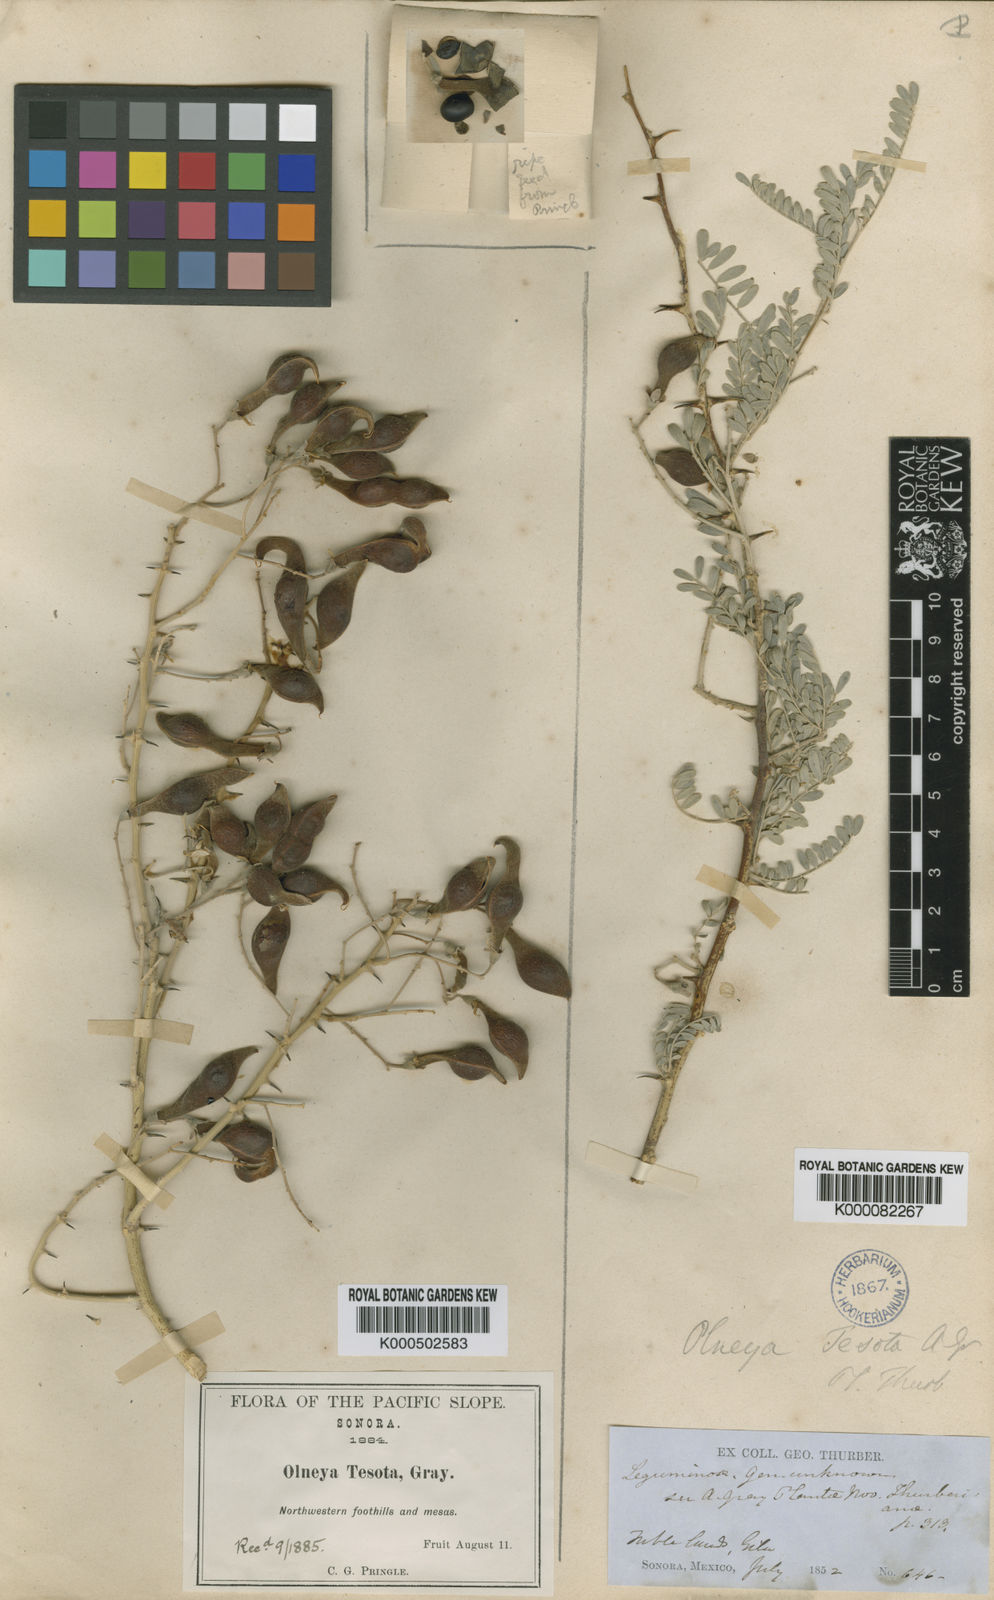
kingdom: Plantae
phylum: Tracheophyta
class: Magnoliopsida
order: Fabales
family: Fabaceae
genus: Olneya
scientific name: Olneya tesota
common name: Desert ironwood
